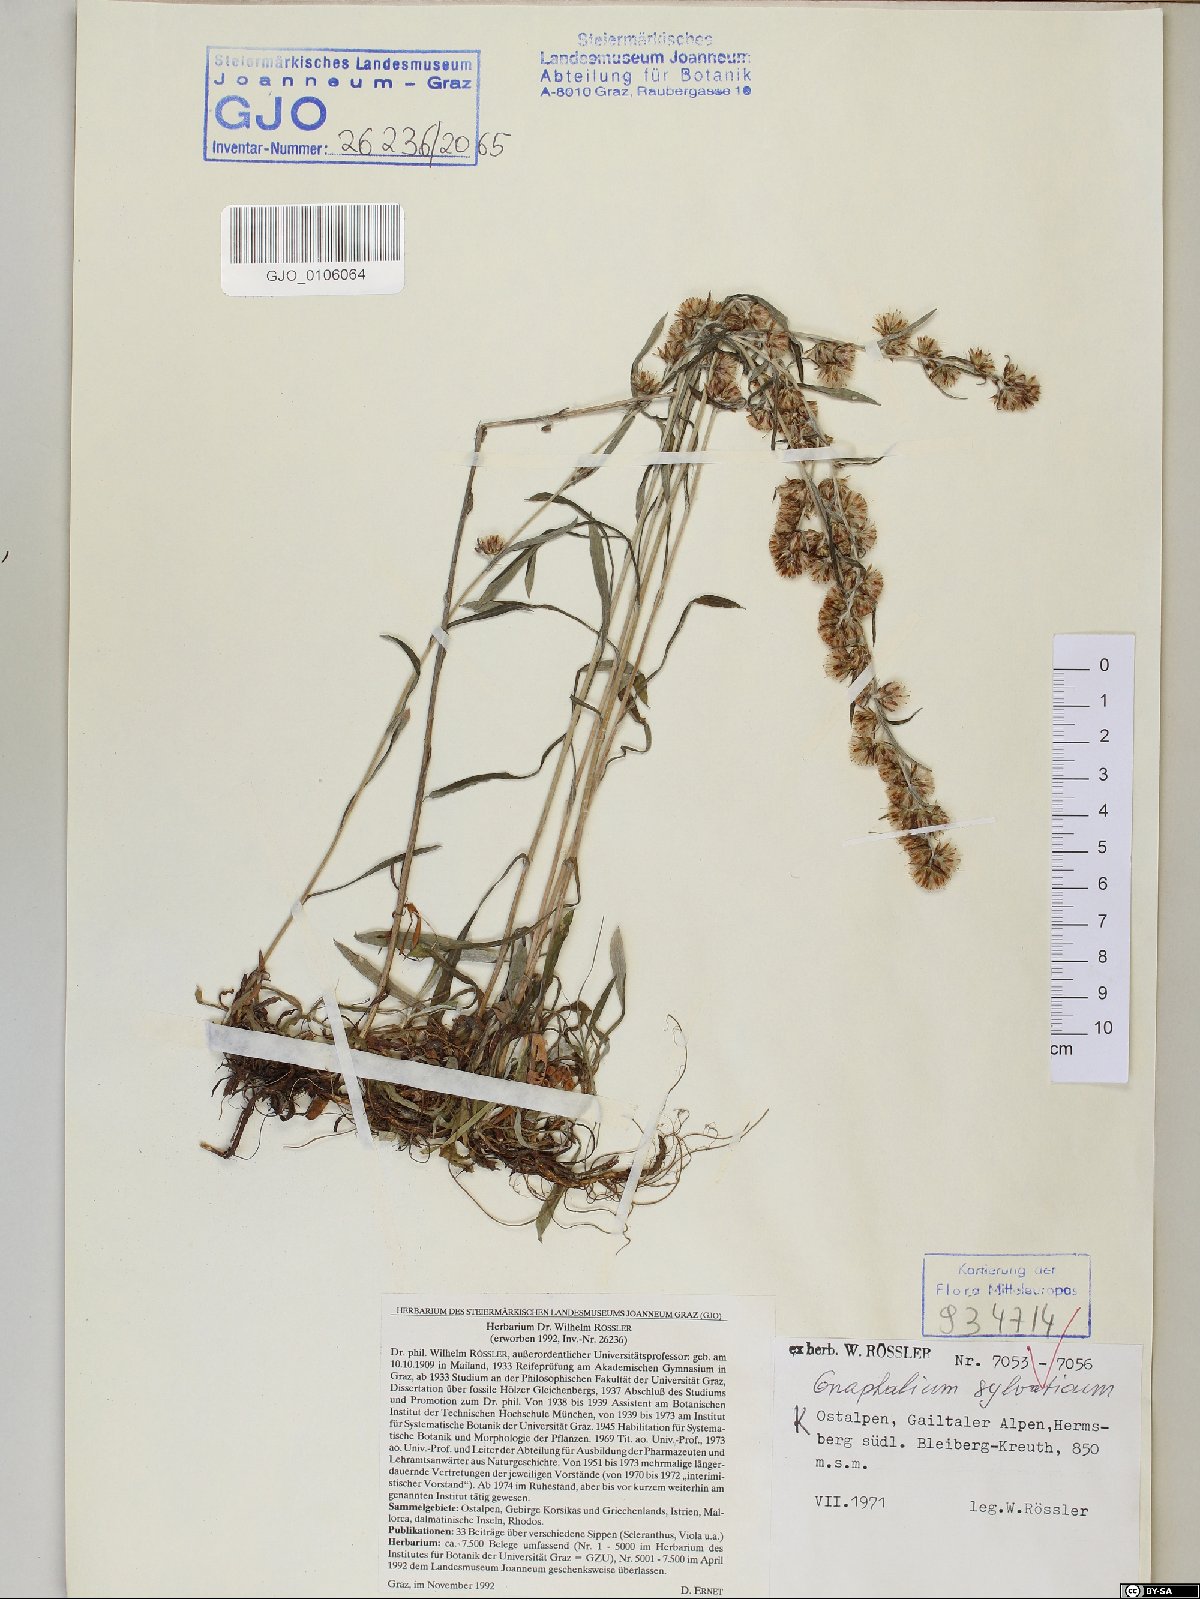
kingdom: Plantae
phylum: Tracheophyta
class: Magnoliopsida
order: Asterales
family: Asteraceae
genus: Omalotheca
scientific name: Omalotheca sylvatica
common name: Heath cudweed
